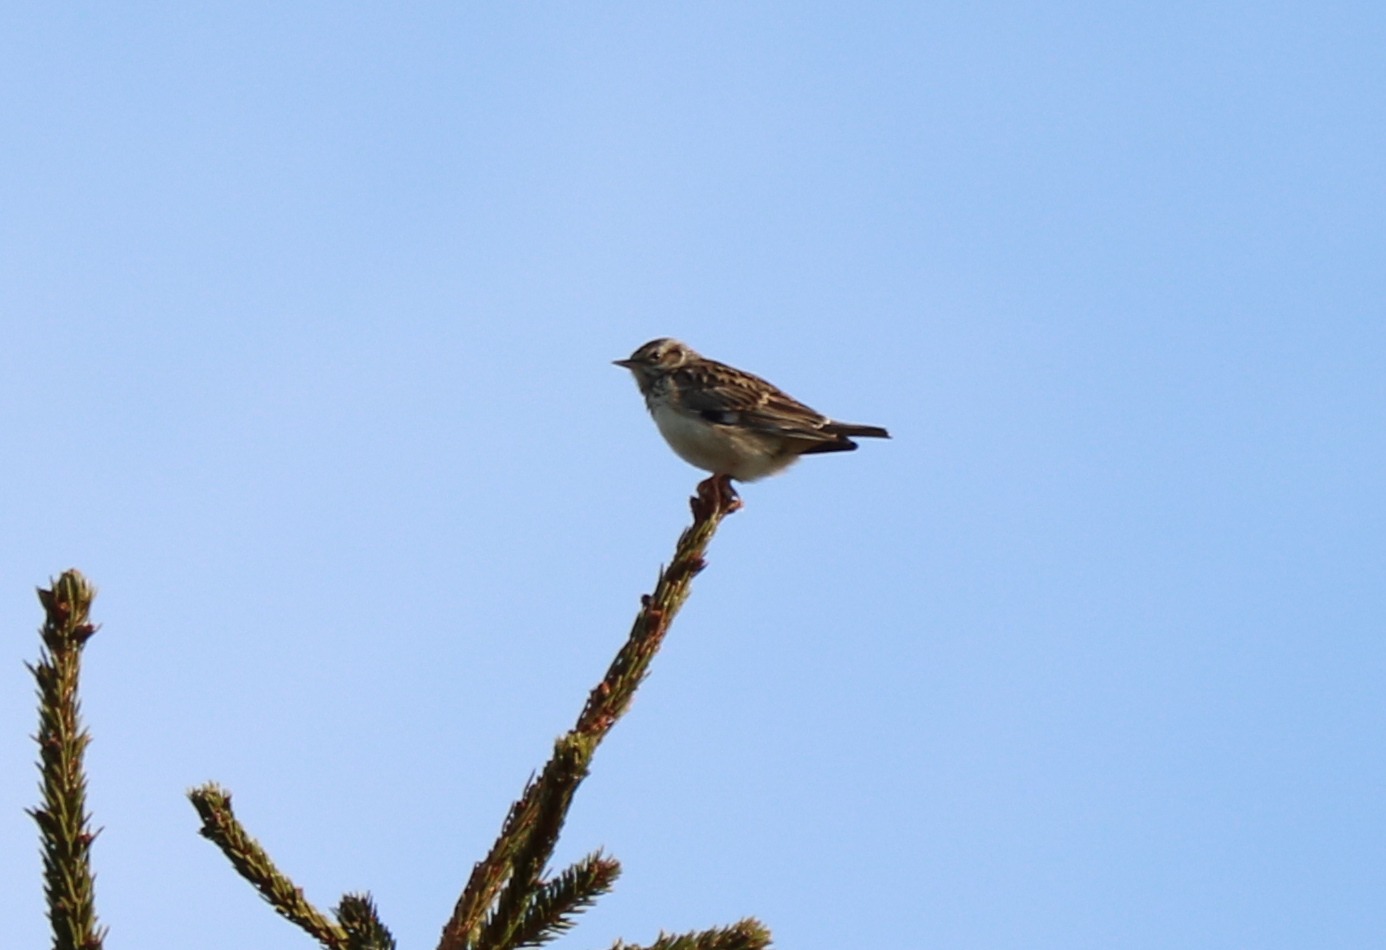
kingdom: Animalia
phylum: Chordata
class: Aves
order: Passeriformes
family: Alaudidae
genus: Lullula
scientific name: Lullula arborea
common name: Hedelærke
